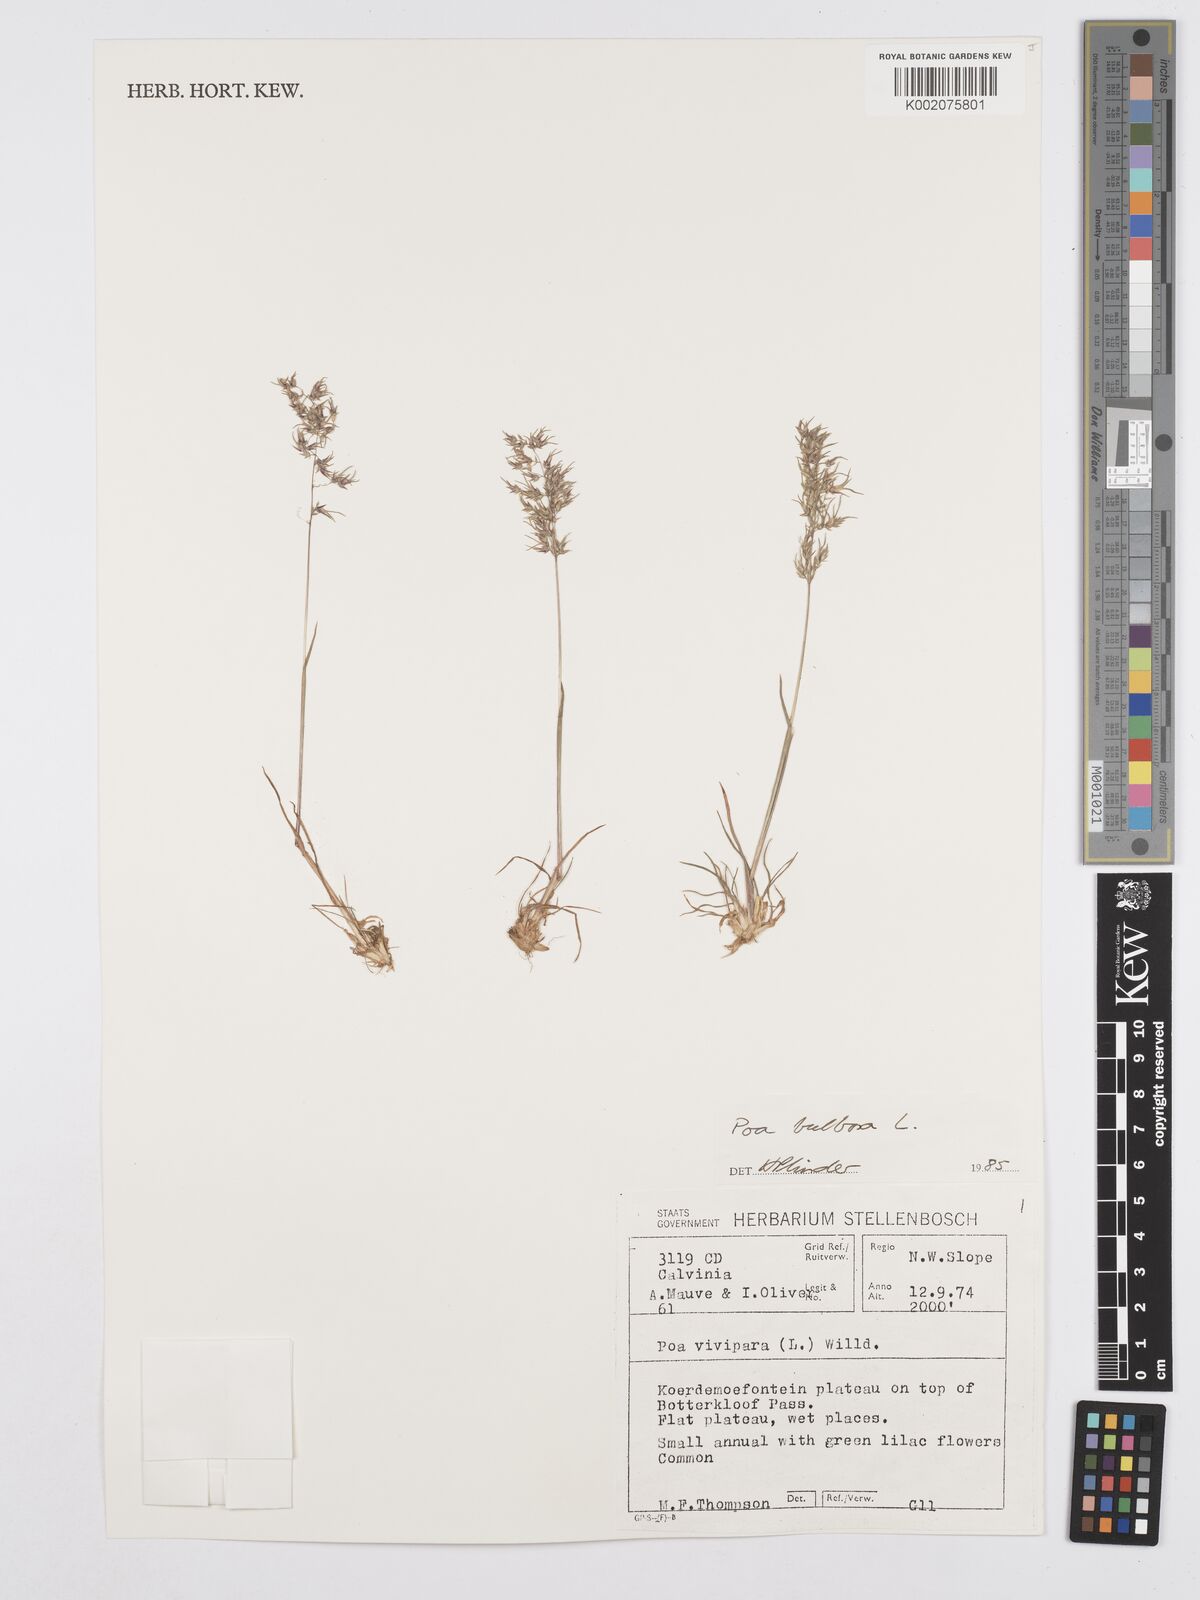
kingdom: Plantae
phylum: Tracheophyta
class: Liliopsida
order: Poales
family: Poaceae
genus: Poa
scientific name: Poa bulbosa
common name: Bulbous bluegrass
